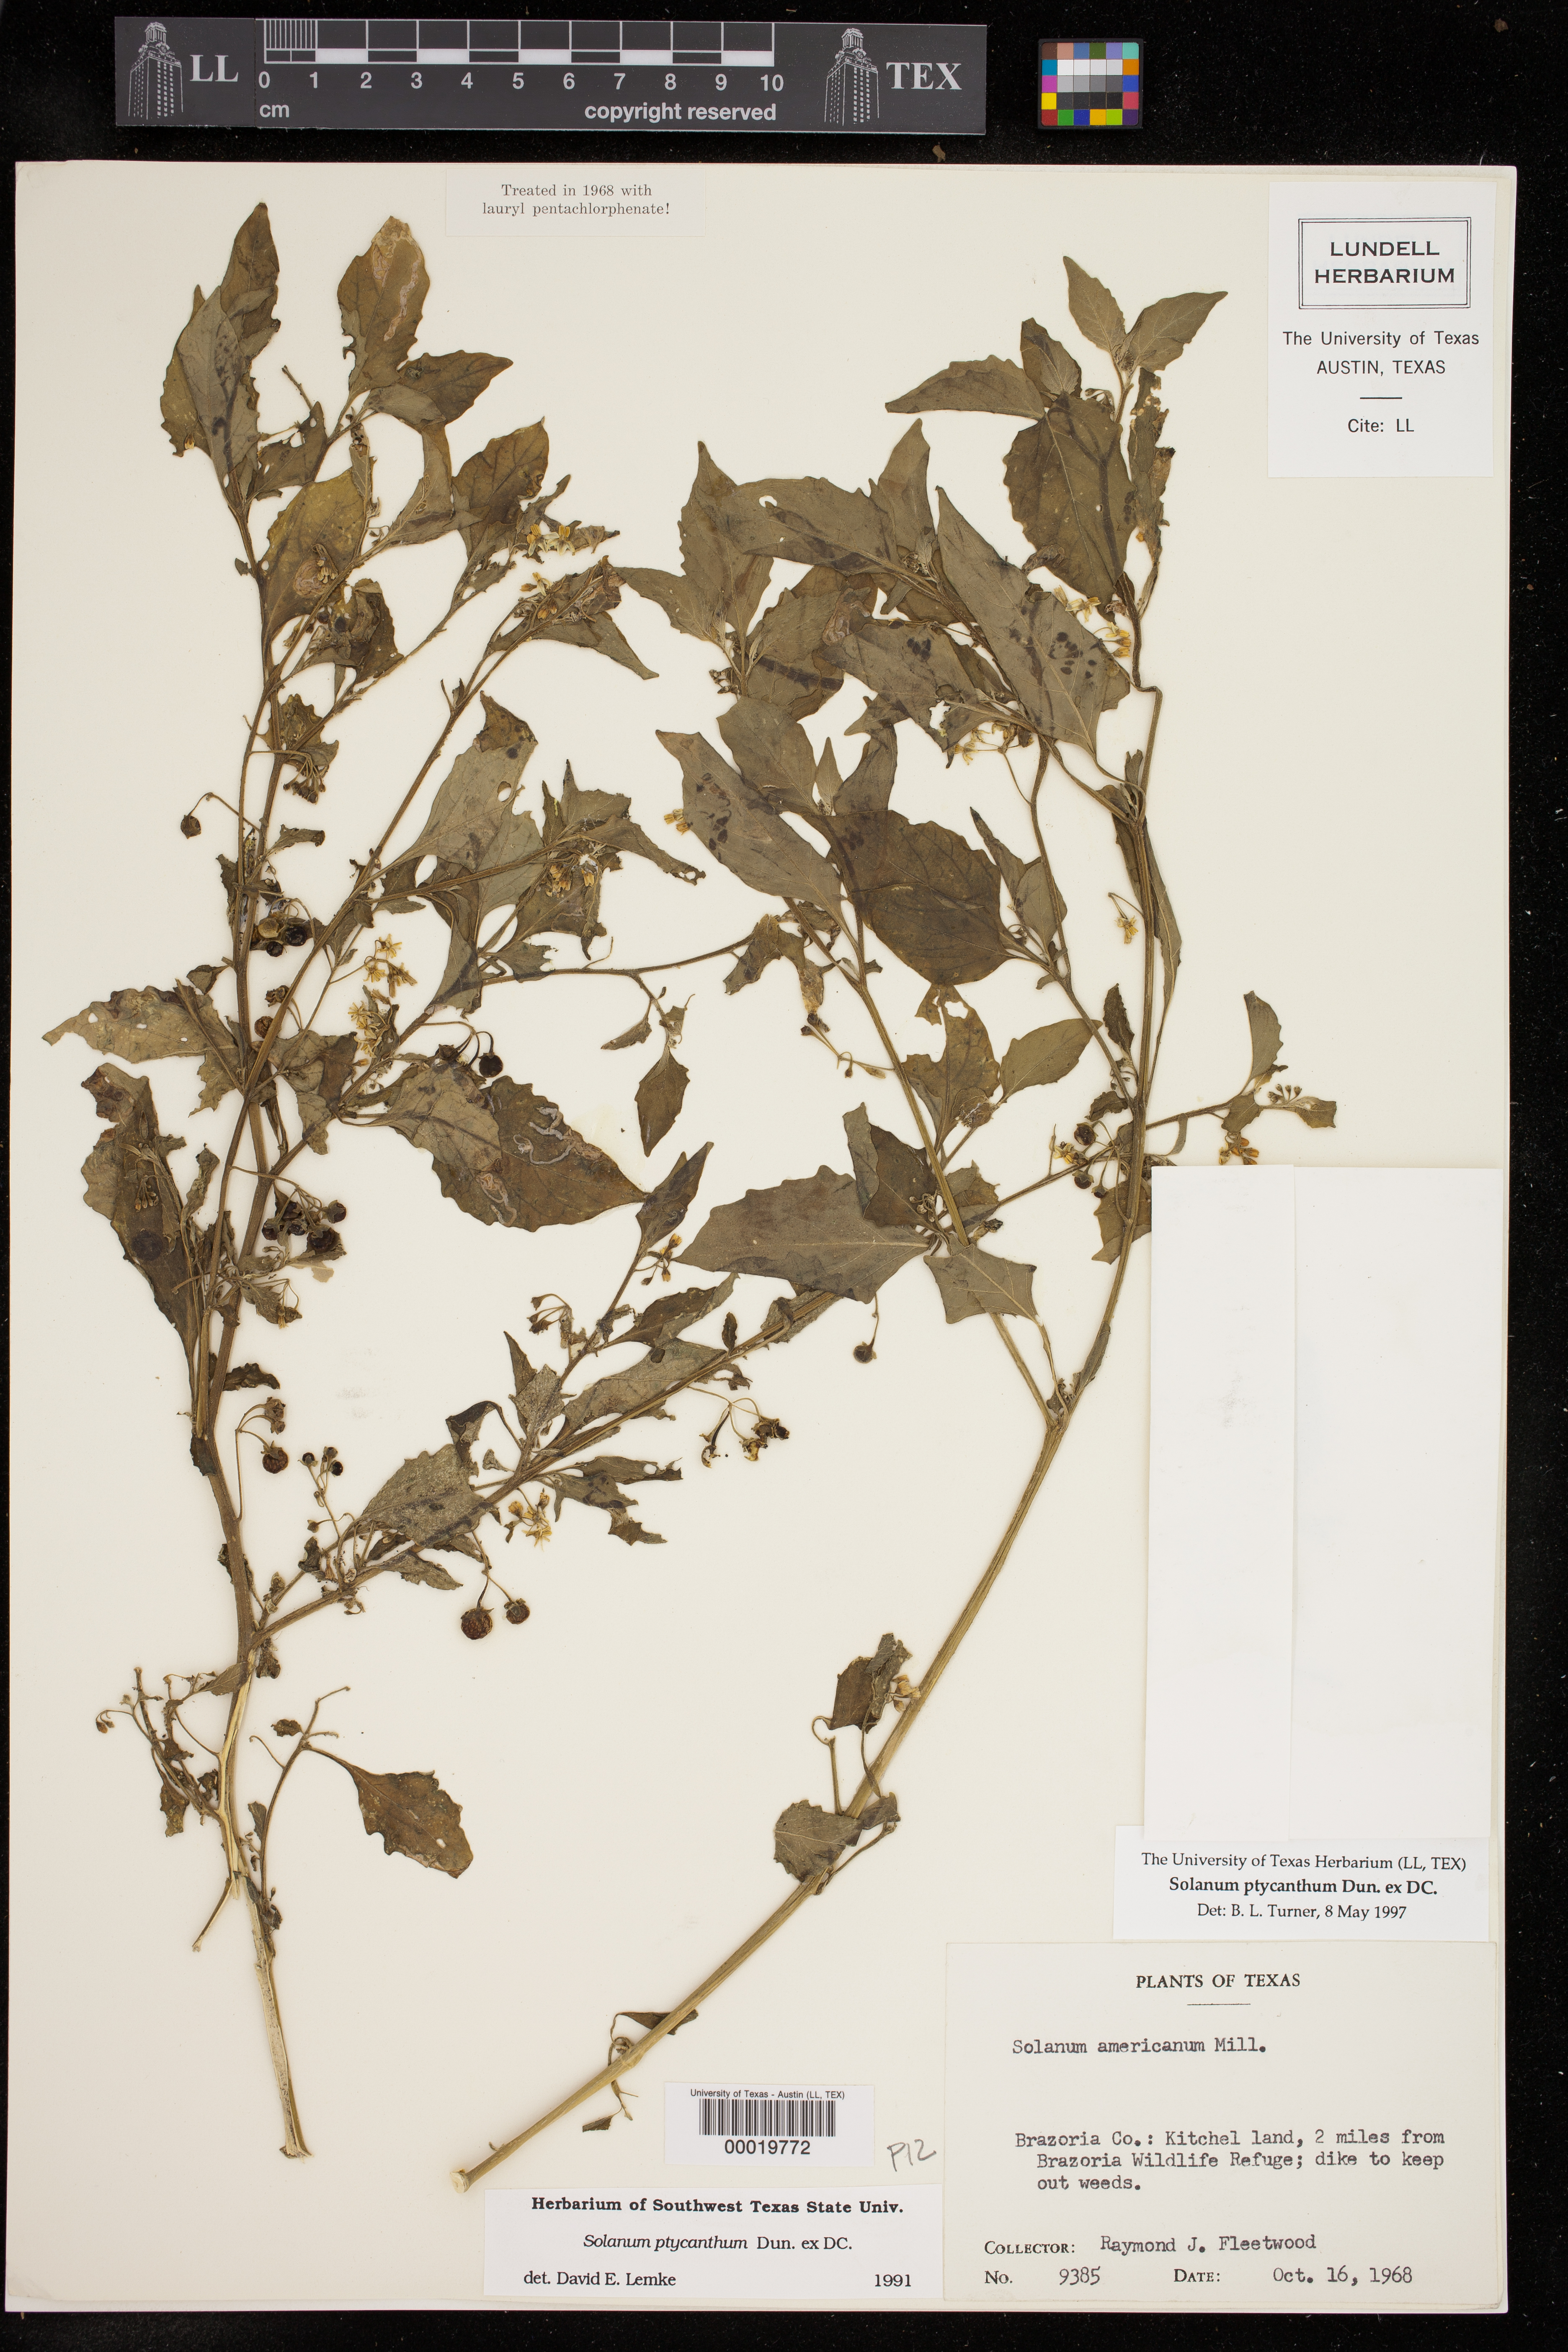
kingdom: Plantae
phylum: Tracheophyta
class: Magnoliopsida
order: Solanales
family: Solanaceae
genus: Solanum
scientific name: Solanum americanum
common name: American black nightshade
